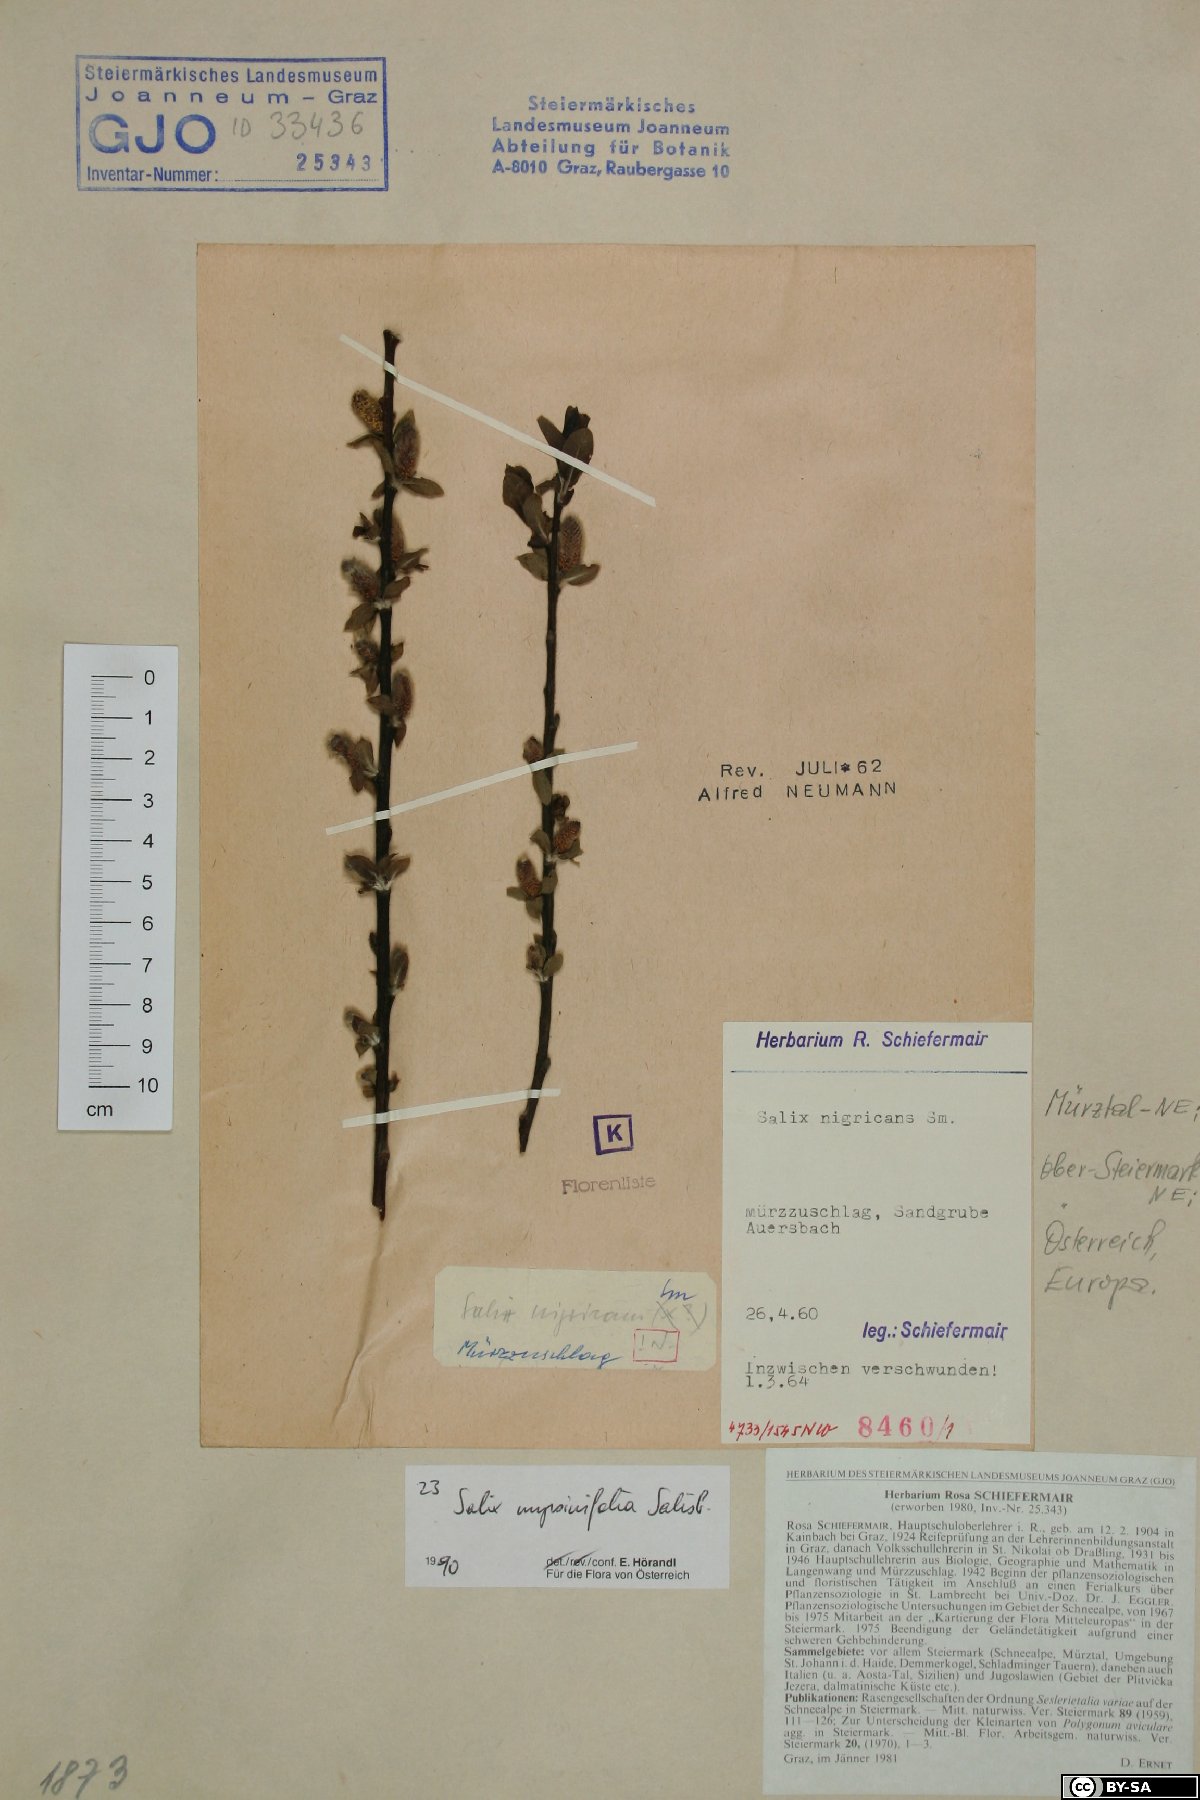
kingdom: Plantae
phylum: Tracheophyta
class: Magnoliopsida
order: Malpighiales
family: Salicaceae
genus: Salix
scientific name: Salix myrsinifolia
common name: Dark-leaved willow
